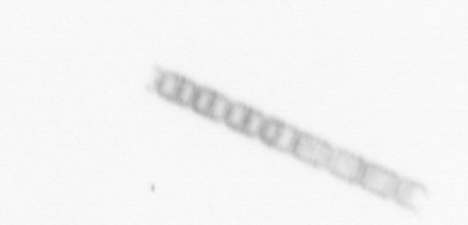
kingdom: Chromista
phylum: Ochrophyta
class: Bacillariophyceae
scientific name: Bacillariophyceae
